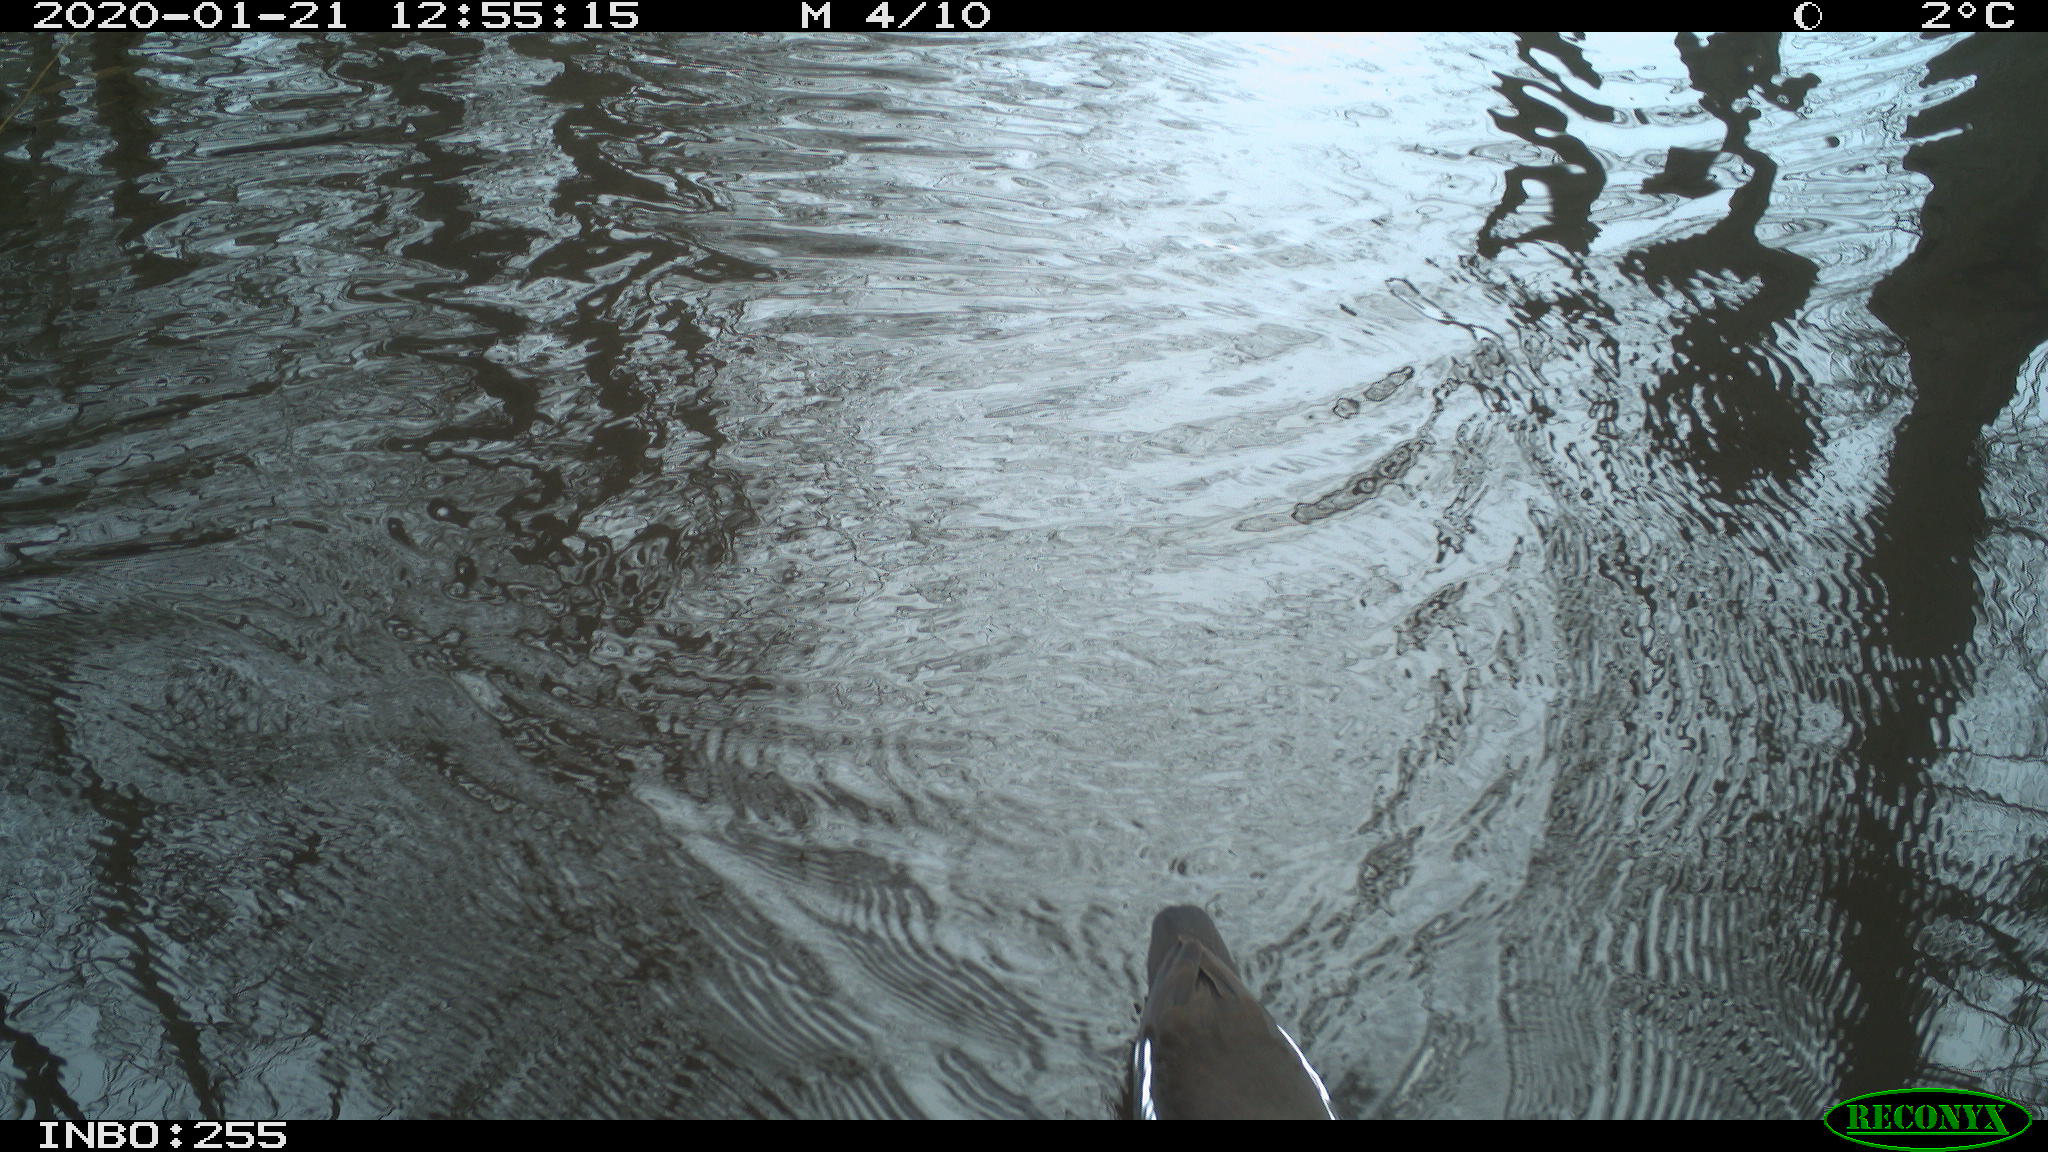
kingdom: Animalia
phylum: Chordata
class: Aves
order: Gruiformes
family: Rallidae
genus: Gallinula
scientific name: Gallinula chloropus
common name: Common moorhen
